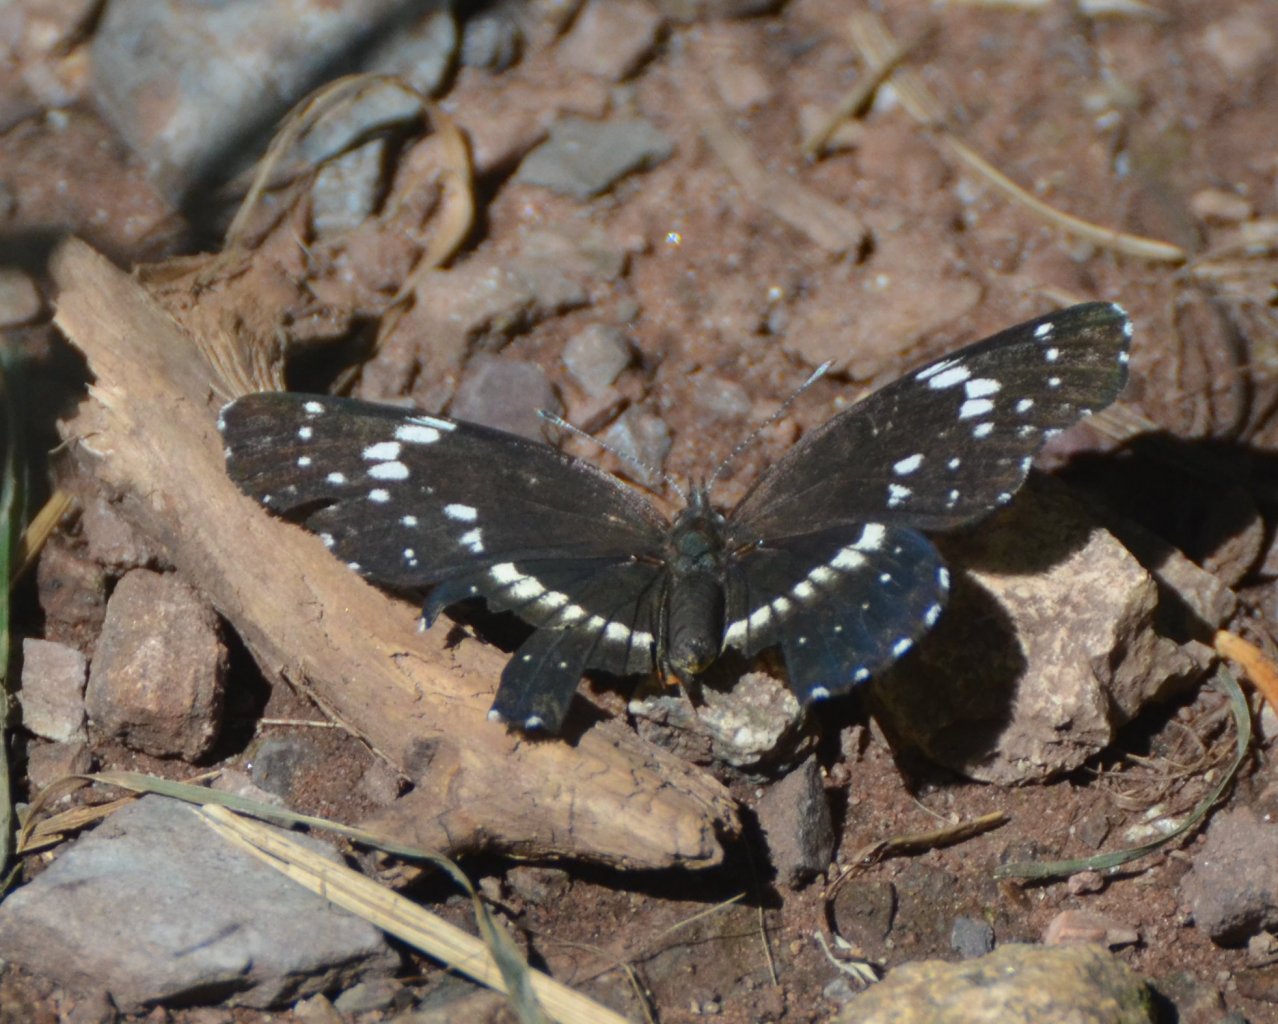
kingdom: Animalia
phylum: Arthropoda
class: Insecta
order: Lepidoptera
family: Nymphalidae
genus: Chlosyne
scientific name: Chlosyne lacinia
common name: Bordered Patch
